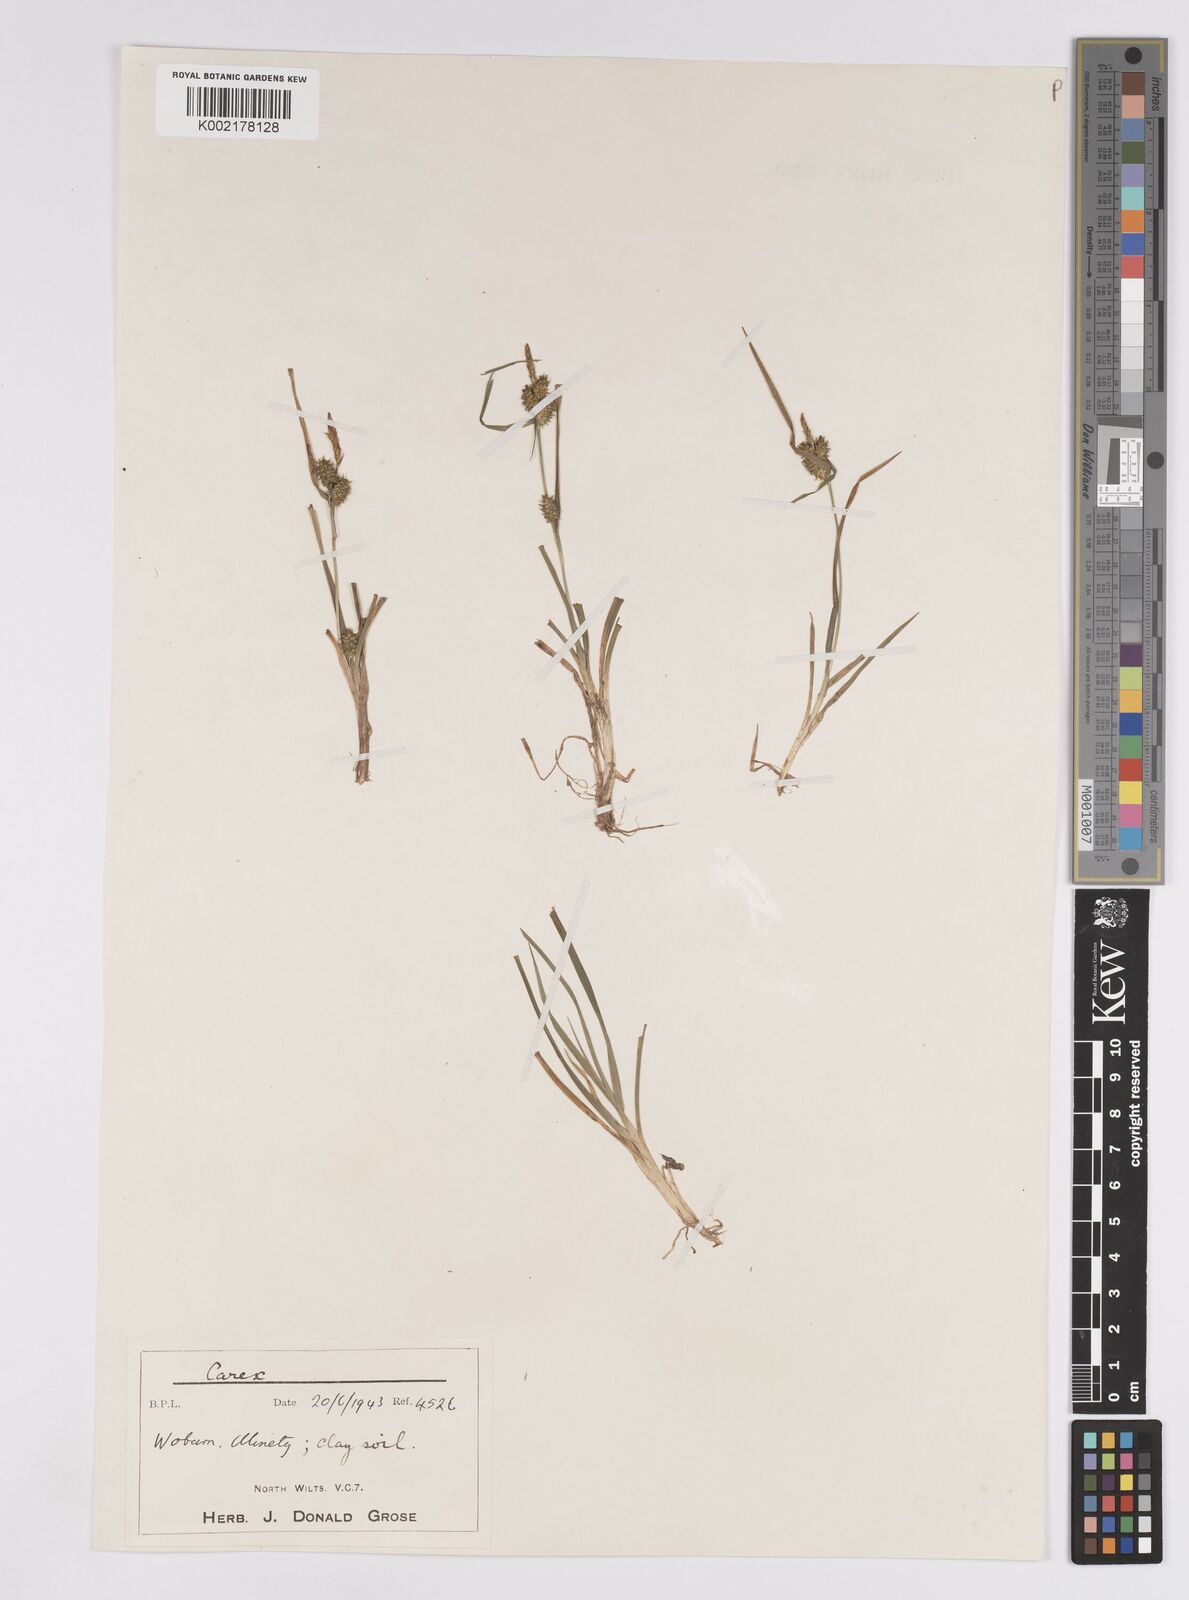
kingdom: Plantae
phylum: Tracheophyta
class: Liliopsida
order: Poales
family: Cyperaceae
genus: Carex
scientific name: Carex demissa
